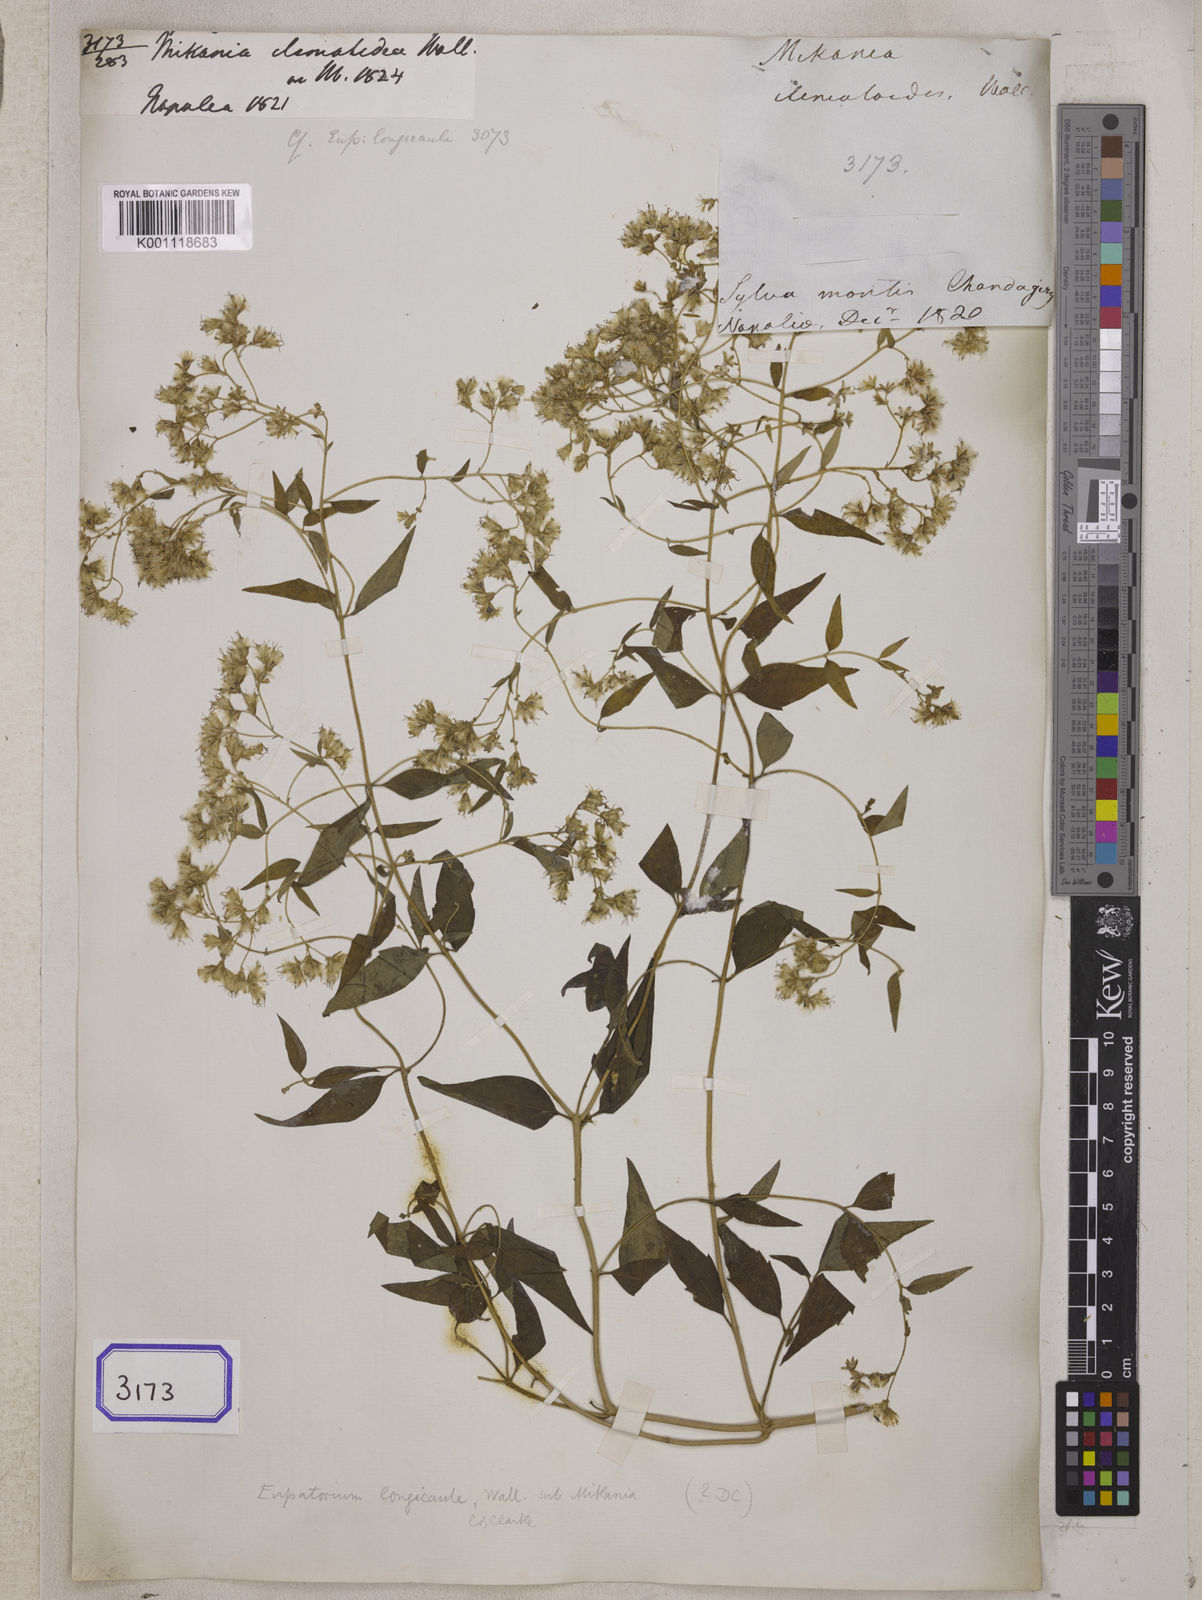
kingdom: Plantae
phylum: Tracheophyta
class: Magnoliopsida
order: Asterales
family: Asteraceae
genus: Mikania
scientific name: Mikania clematidea
